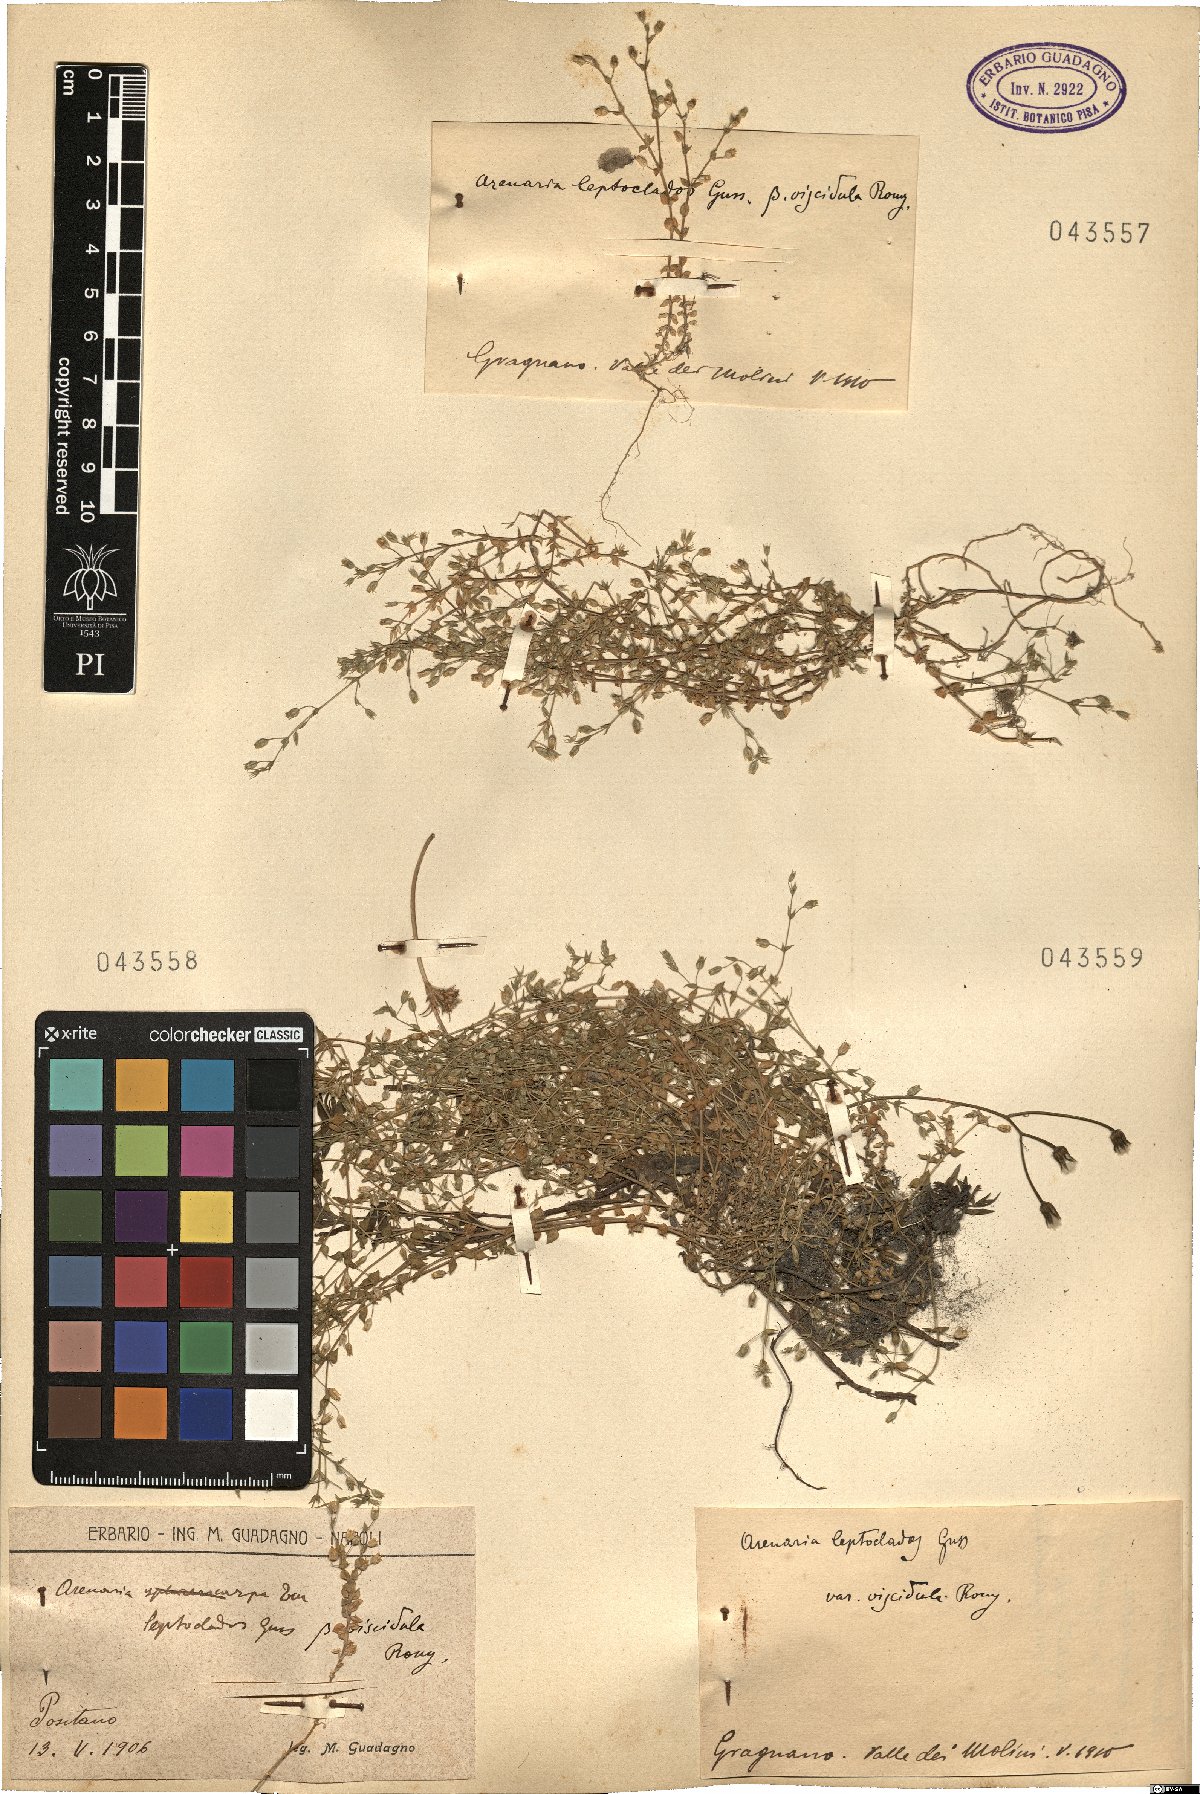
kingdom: Plantae
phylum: Tracheophyta
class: Magnoliopsida
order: Caryophyllales
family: Caryophyllaceae
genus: Arenaria
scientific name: Arenaria leptoclados
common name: Thyme-leaved sandwort
